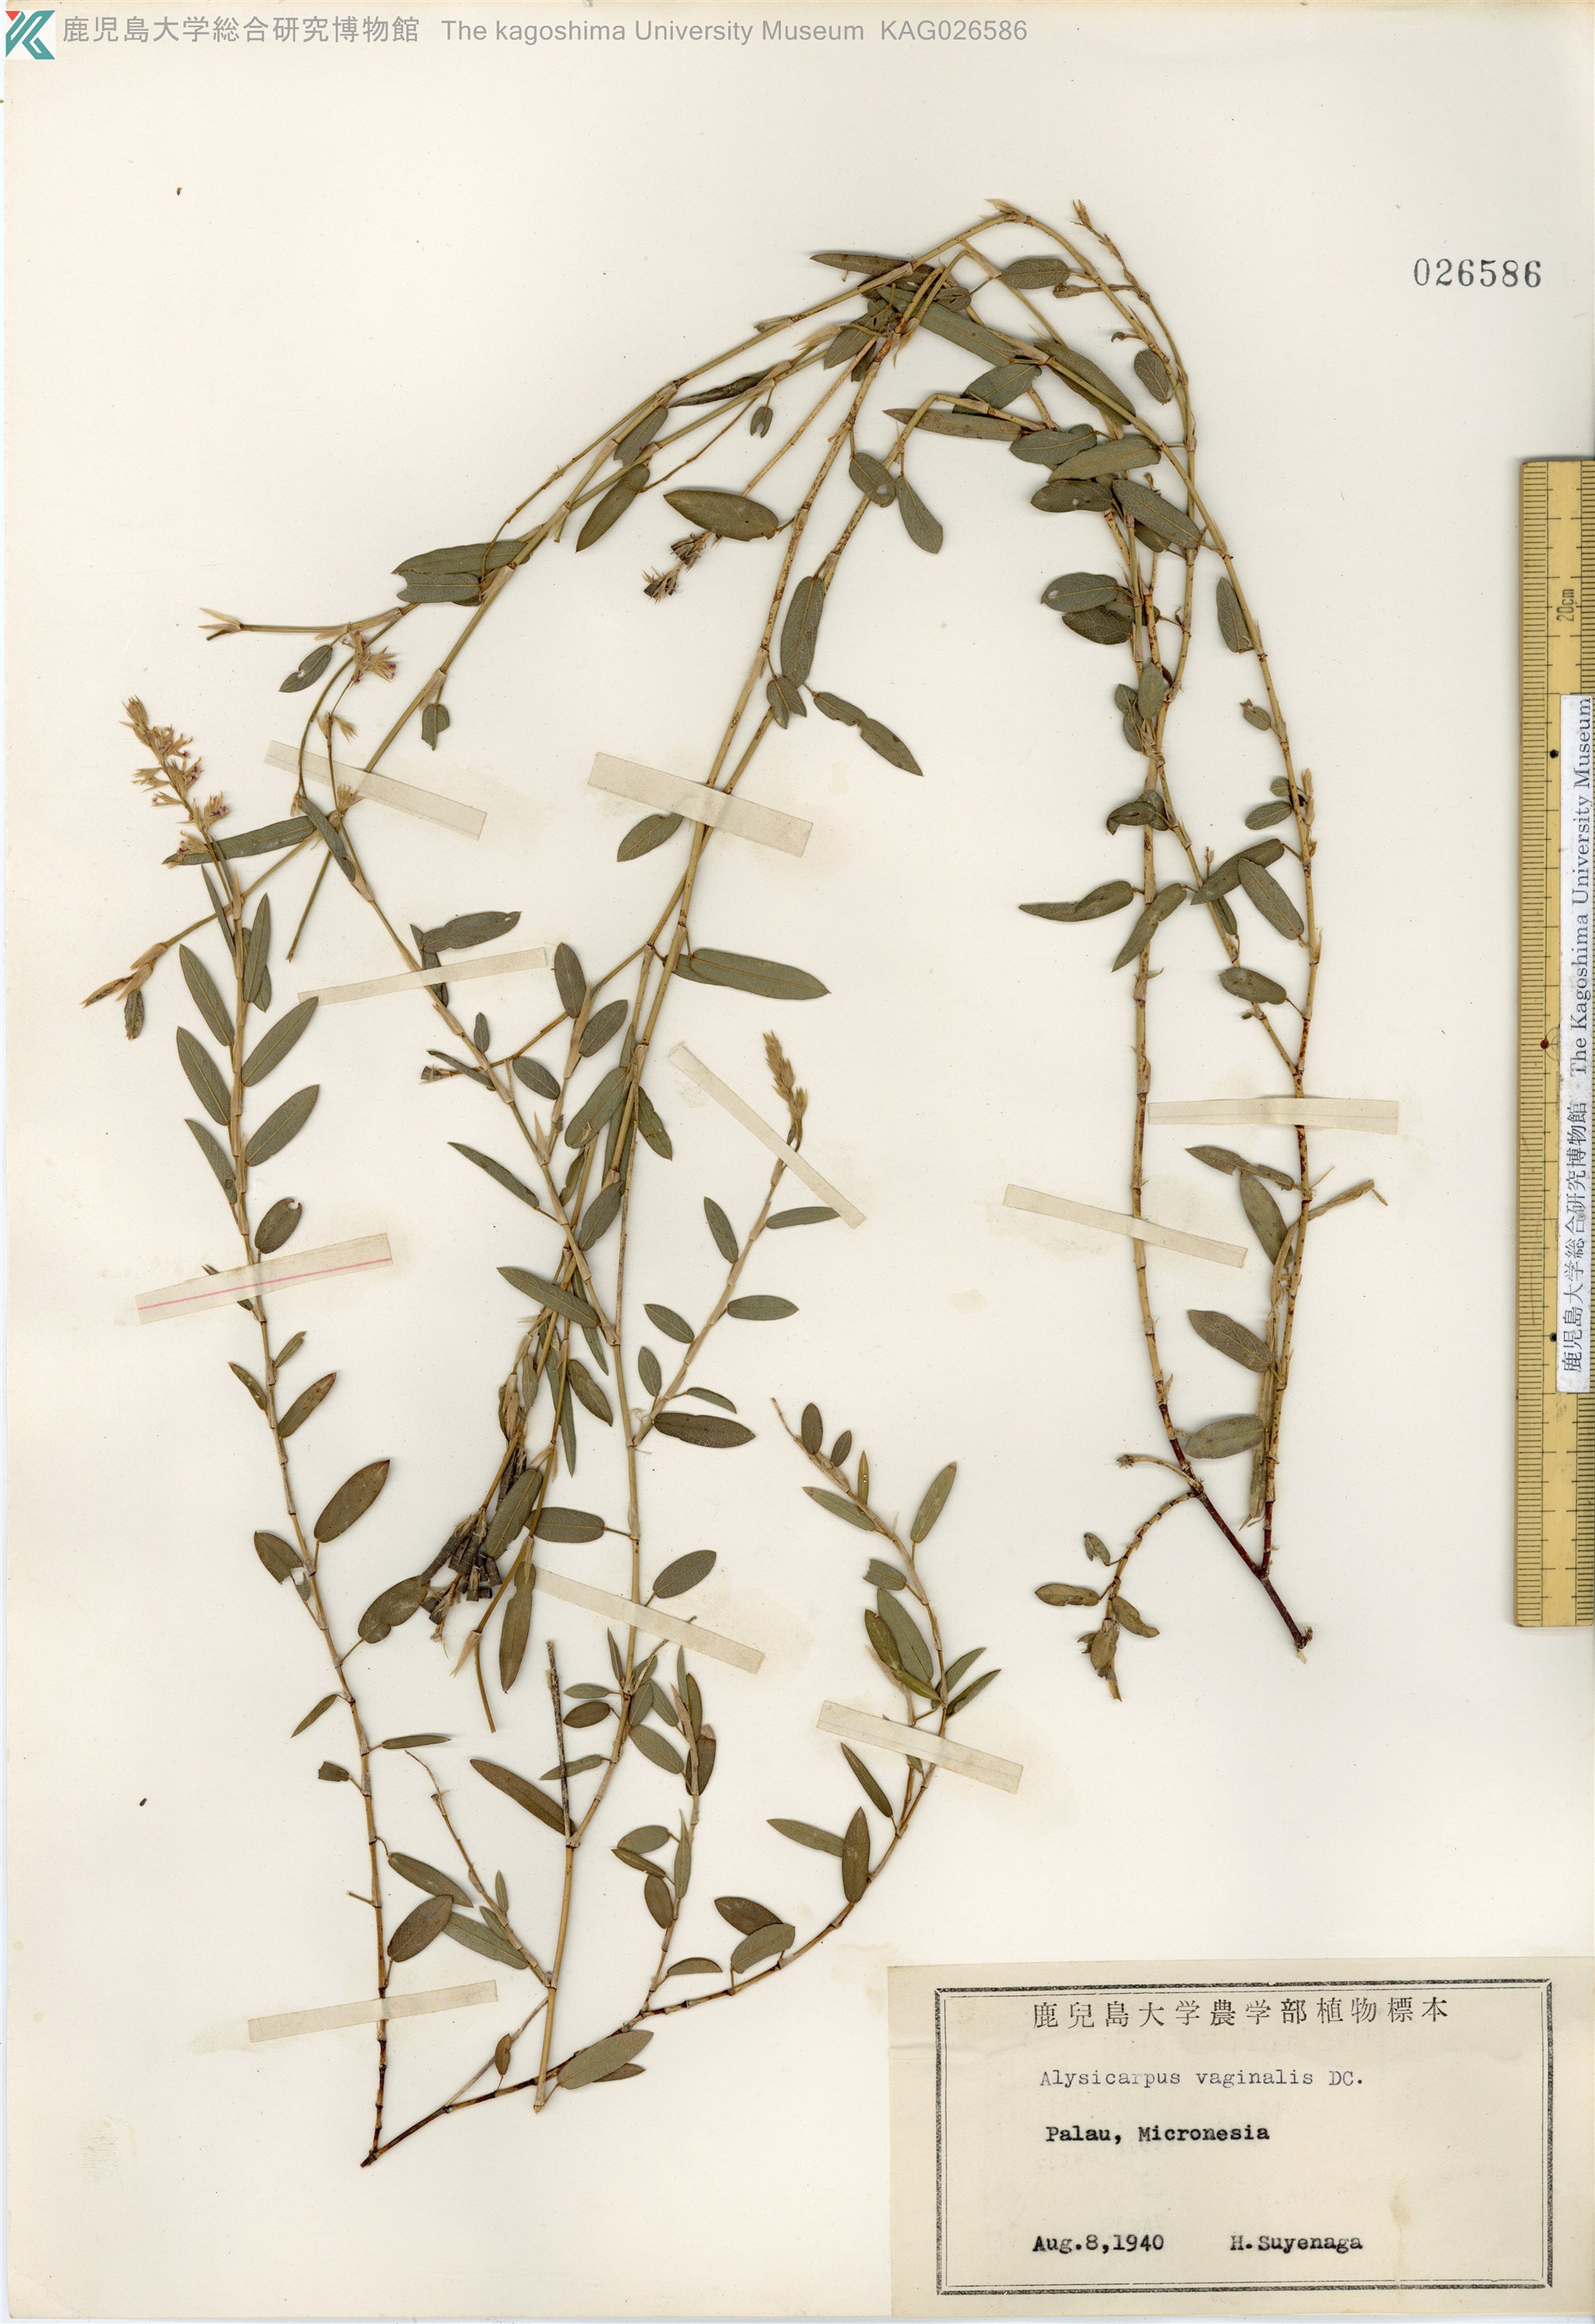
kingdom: Plantae
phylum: Tracheophyta
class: Magnoliopsida
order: Fabales
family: Fabaceae
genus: Alysicarpus
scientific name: Alysicarpus vaginalis
